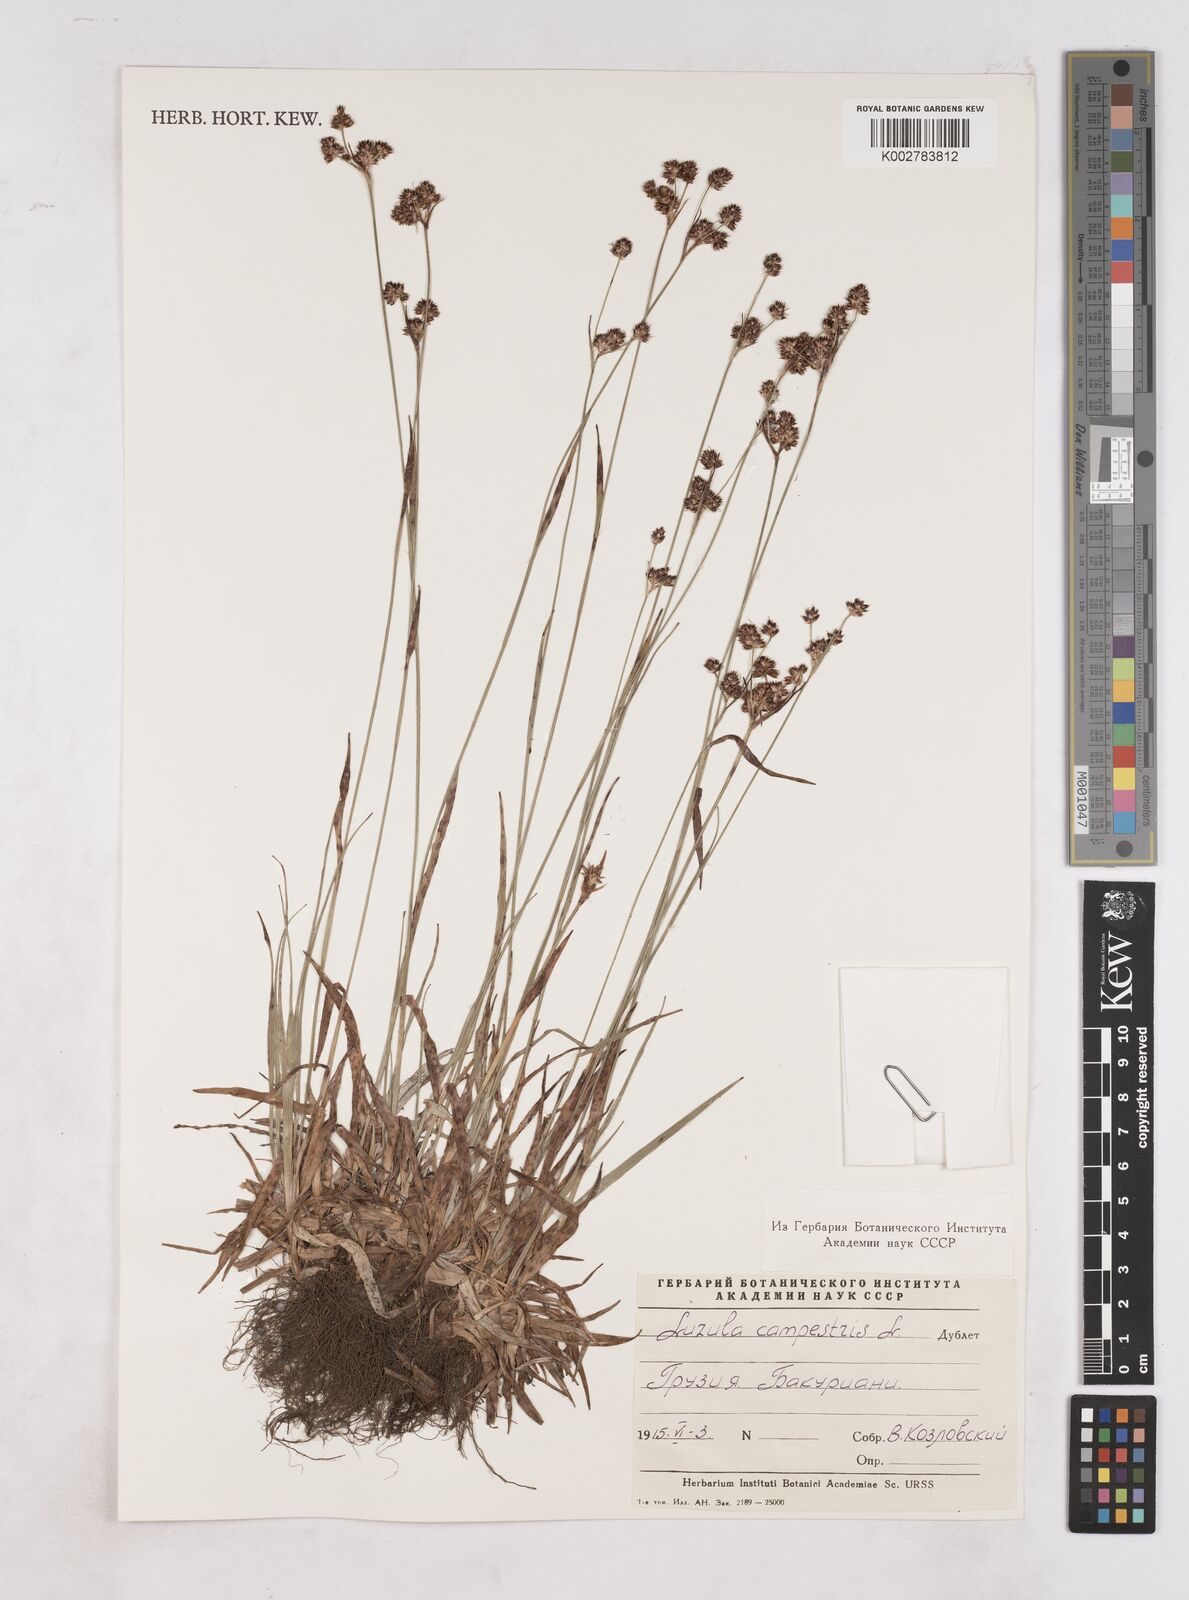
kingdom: Plantae
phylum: Tracheophyta
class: Liliopsida
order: Poales
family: Juncaceae
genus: Luzula
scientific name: Luzula campestris
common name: Field wood-rush
